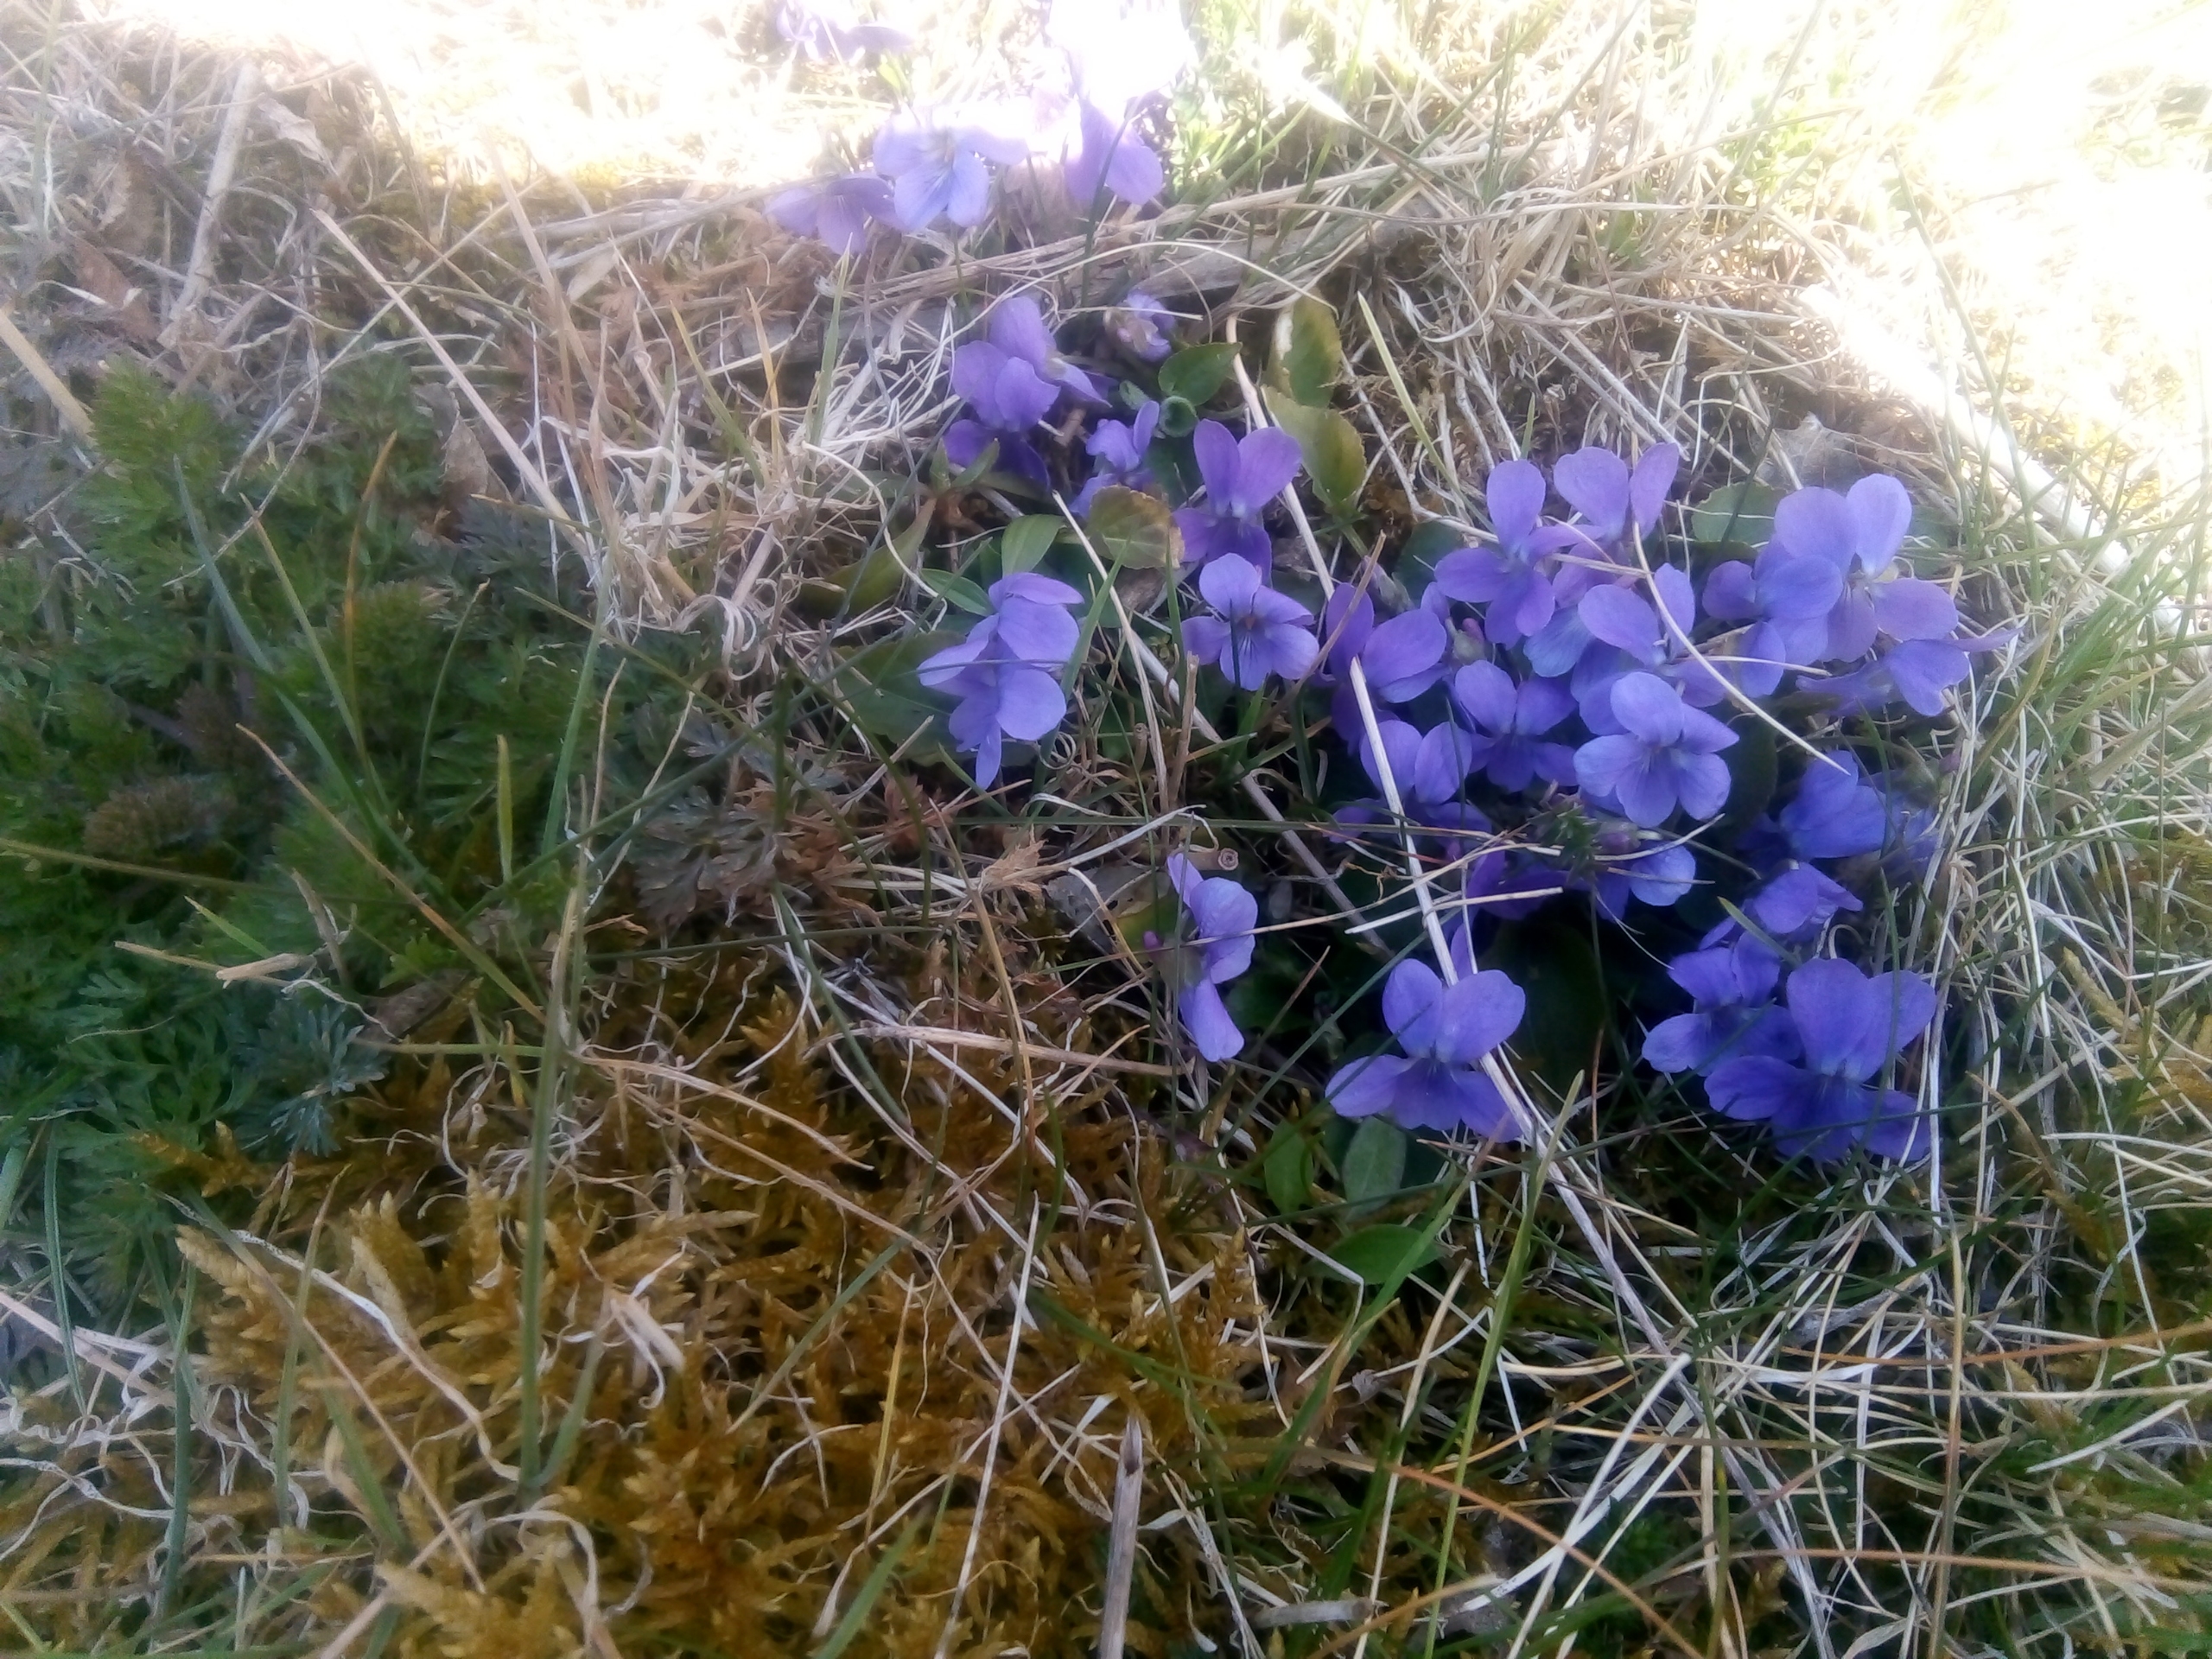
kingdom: Plantae
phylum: Tracheophyta
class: Magnoliopsida
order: Malpighiales
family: Violaceae
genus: Viola
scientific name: Viola odorata
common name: Marts-viol
